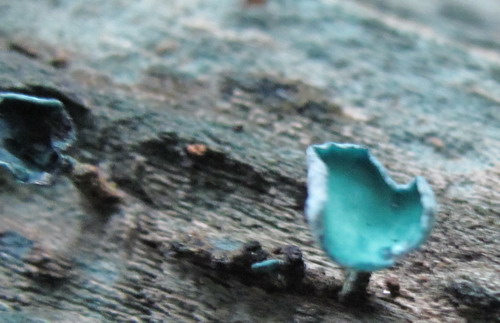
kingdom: Fungi
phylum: Ascomycota
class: Leotiomycetes
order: Helotiales
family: Chlorociboriaceae
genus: Chlorociboria
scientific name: Chlorociboria aeruginascens
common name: almindelig grønskive
